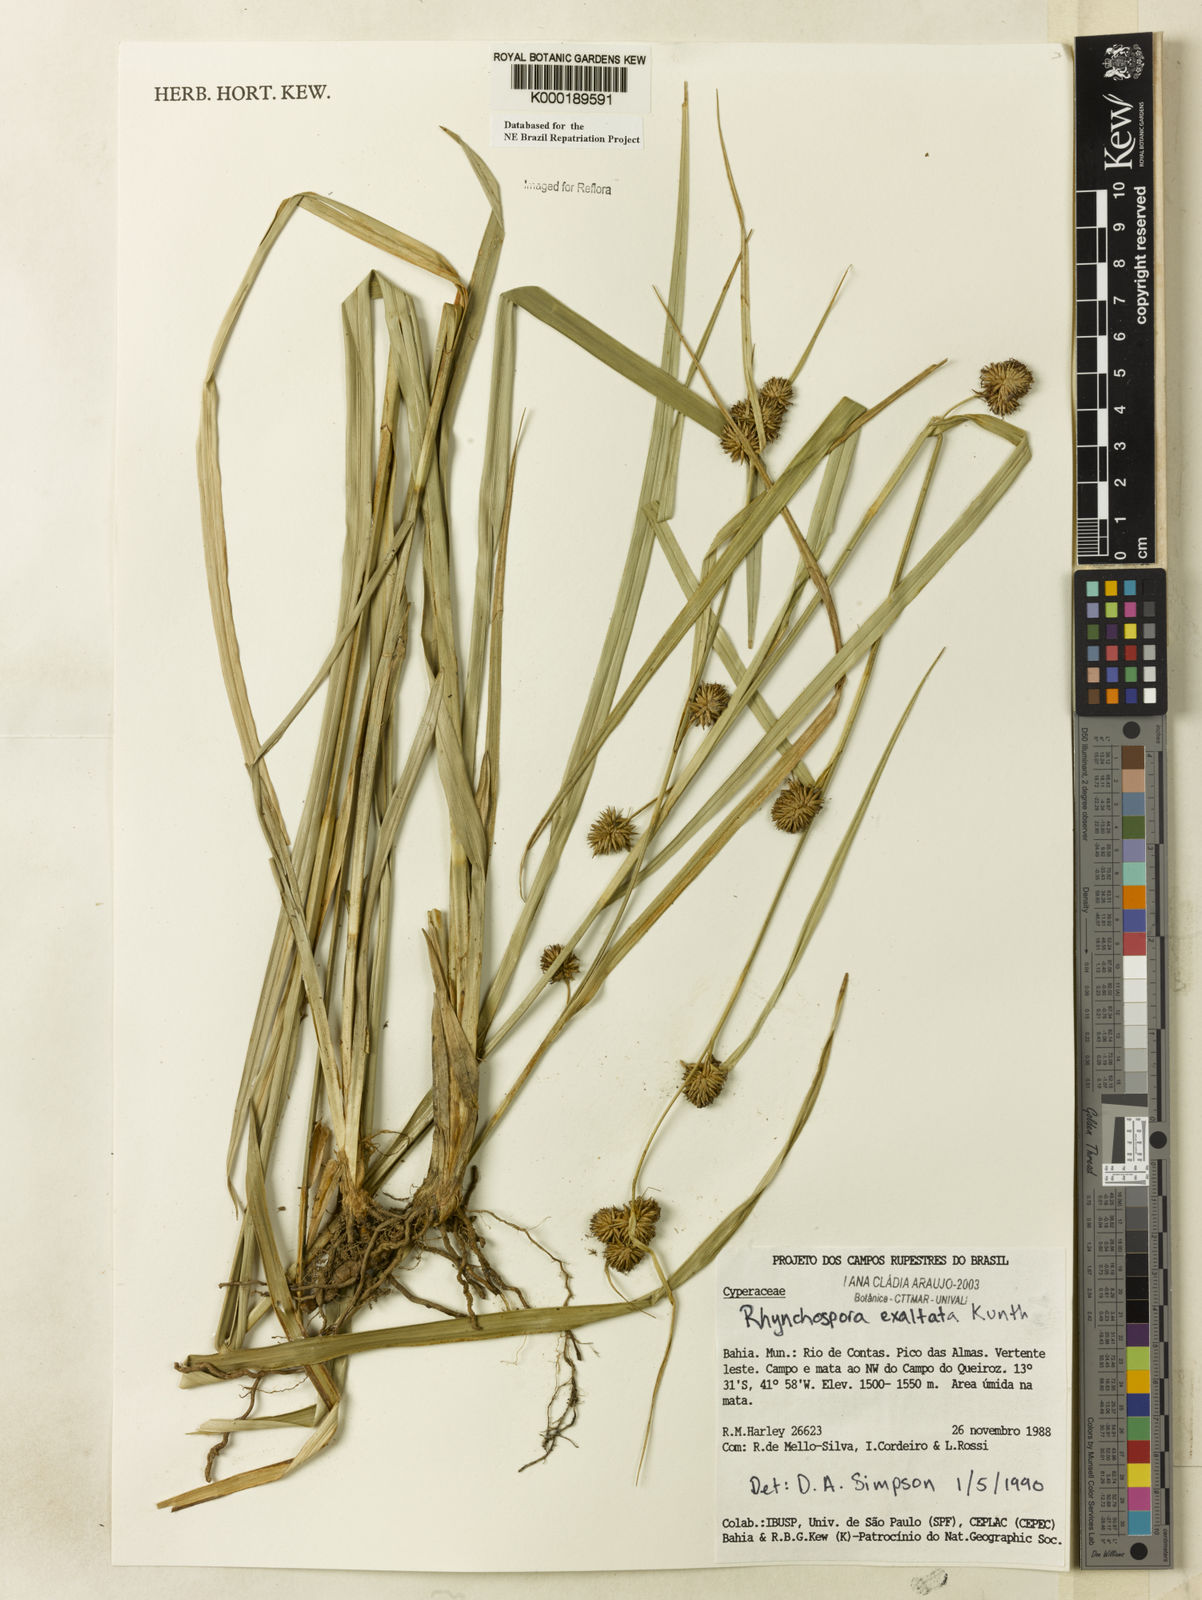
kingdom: Plantae
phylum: Tracheophyta
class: Liliopsida
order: Poales
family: Cyperaceae
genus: Rhynchospora
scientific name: Rhynchospora exaltata
